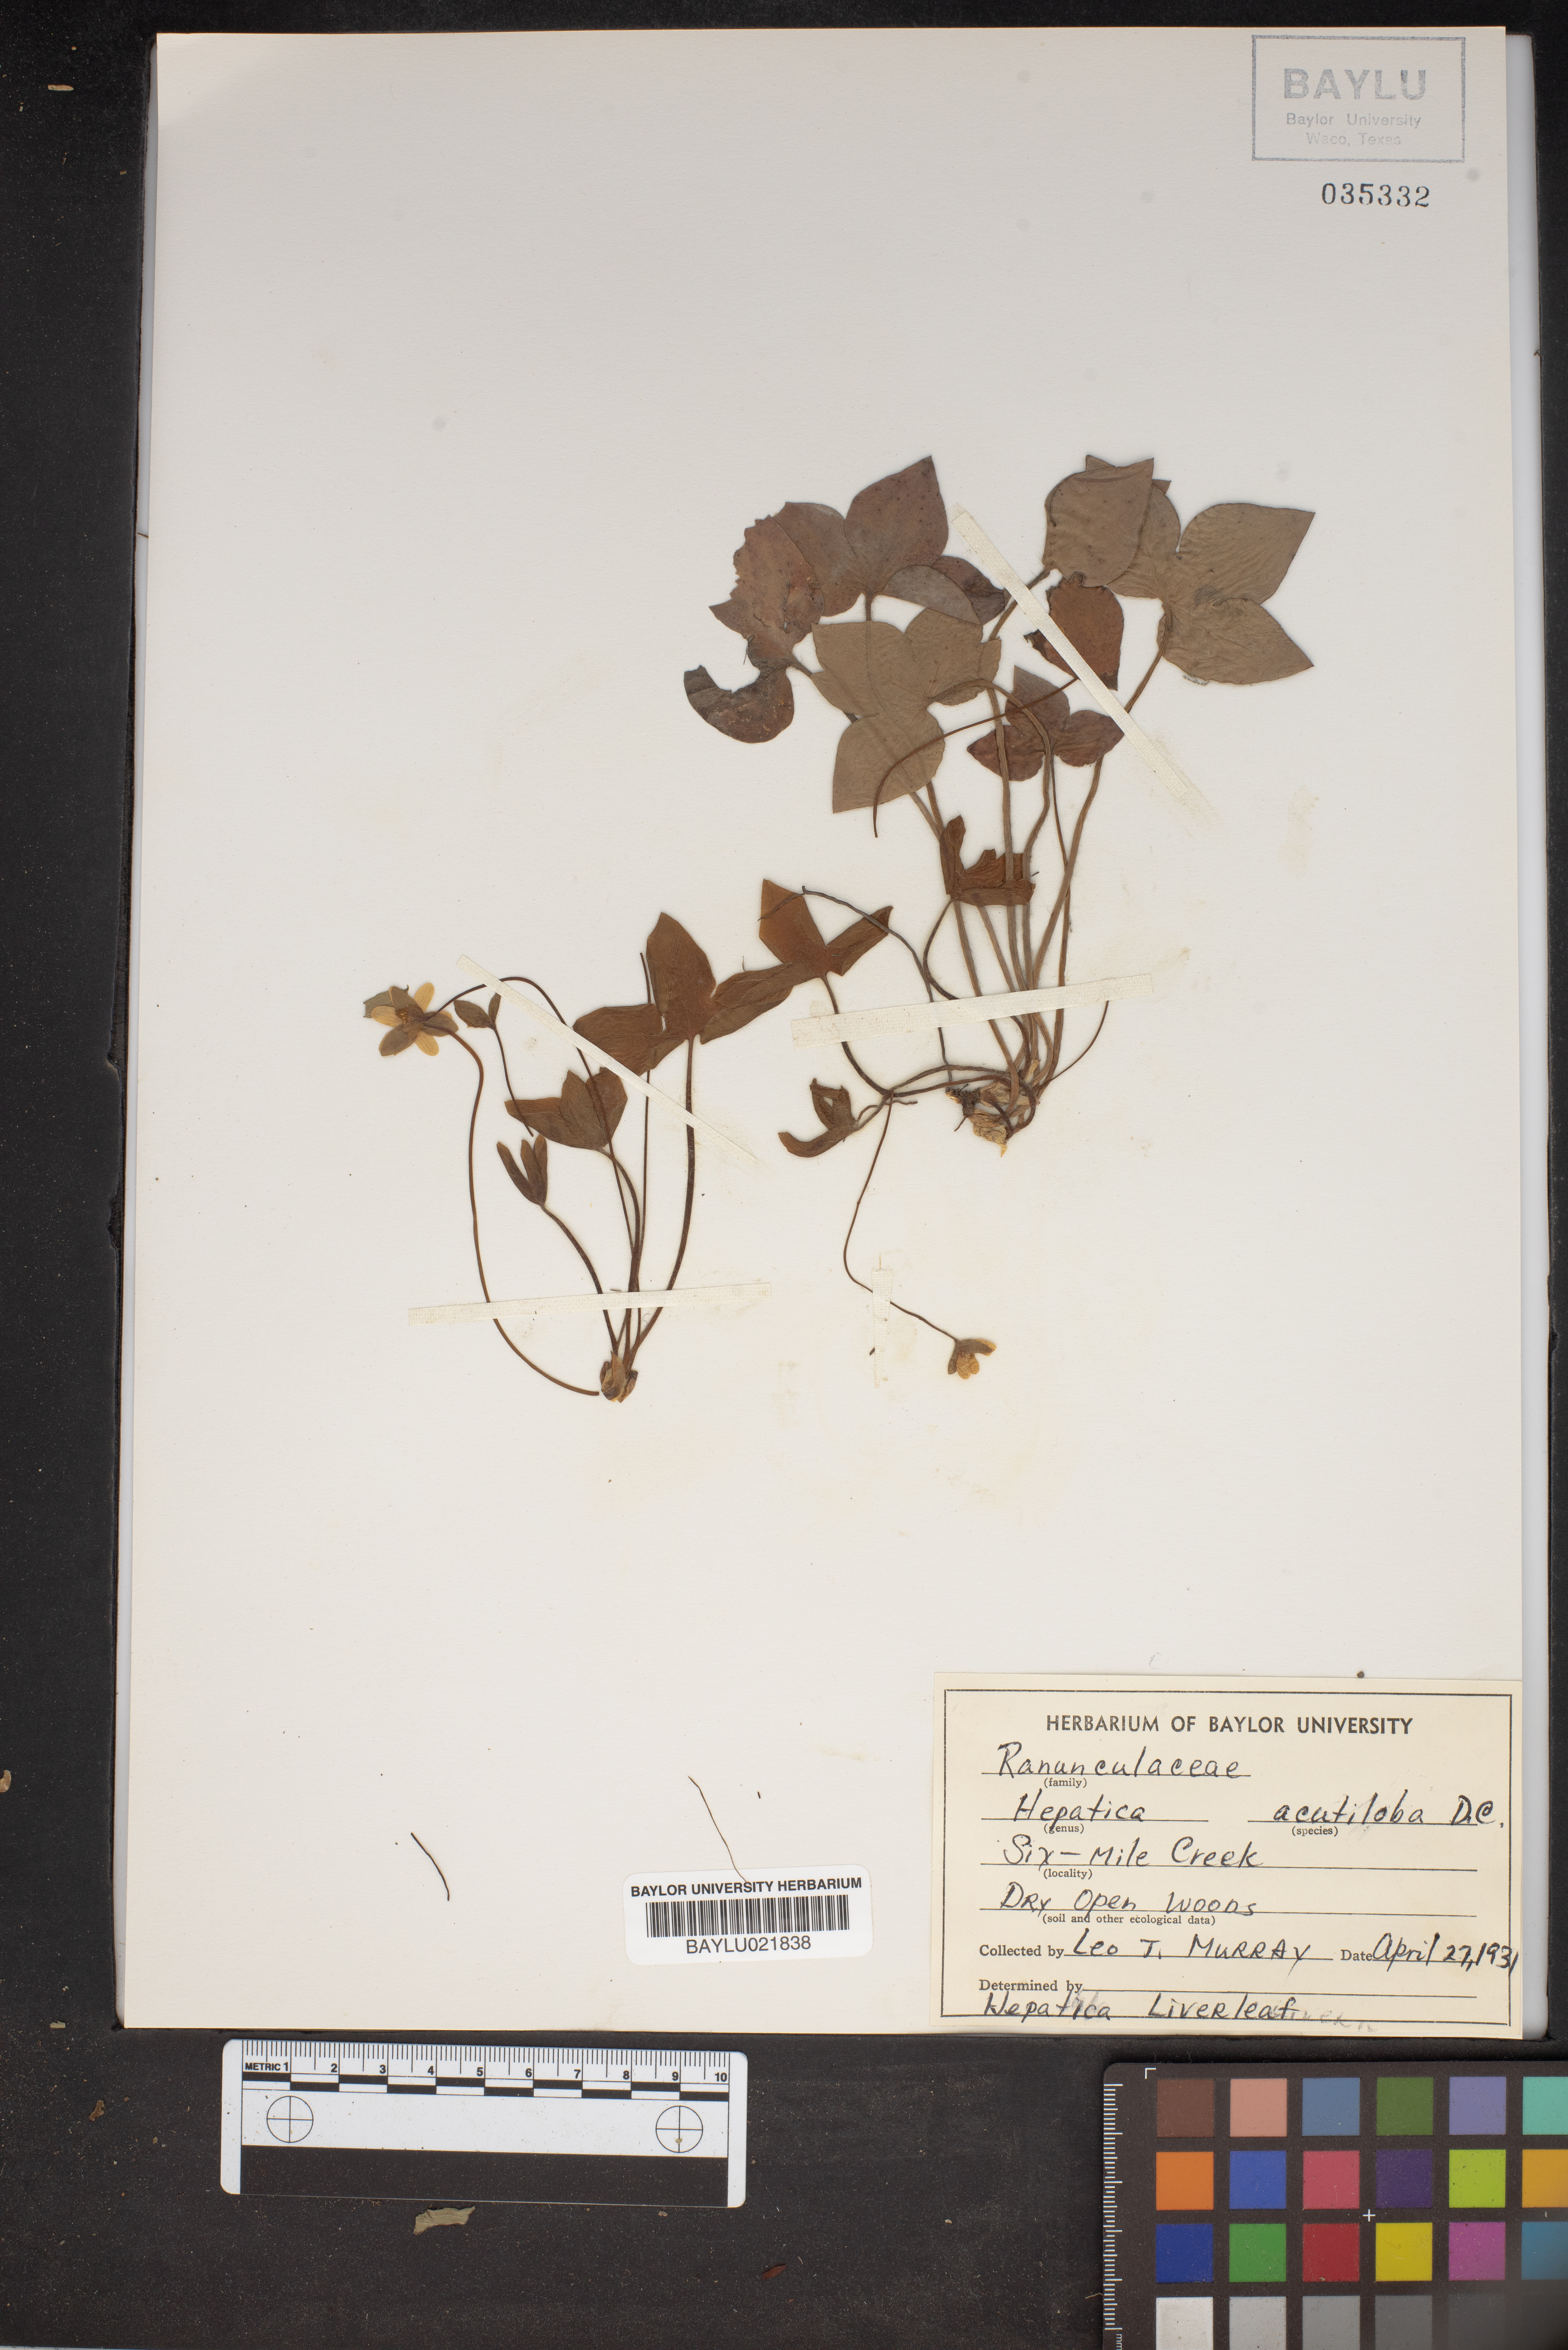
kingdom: Plantae
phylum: Tracheophyta
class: Magnoliopsida
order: Ranunculales
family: Ranunculaceae
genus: Hepatica
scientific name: Hepatica acutiloba
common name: Sharp-lobed hepatica
